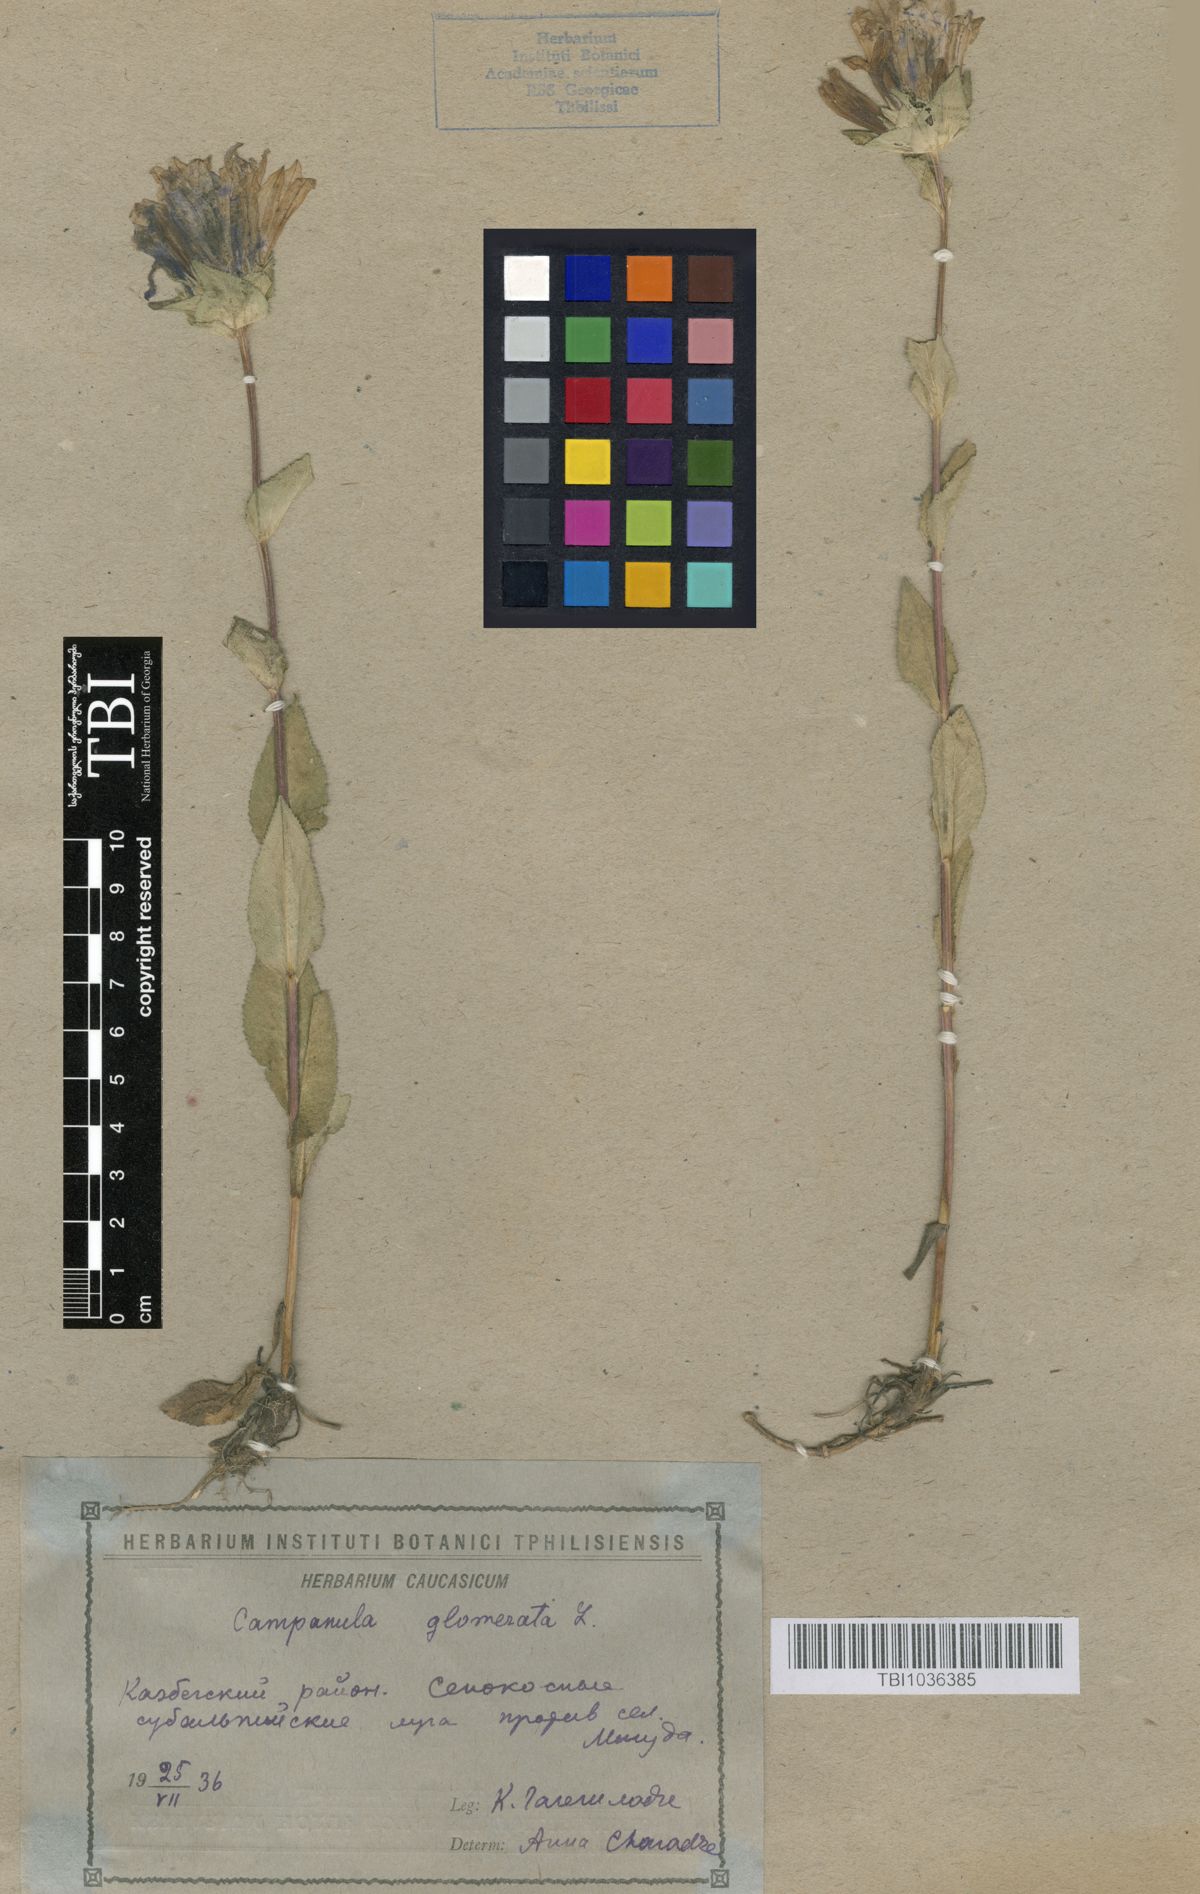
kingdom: Plantae
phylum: Tracheophyta
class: Magnoliopsida
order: Asterales
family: Campanulaceae
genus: Campanula
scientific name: Campanula glomerata
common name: Clustered bellflower
